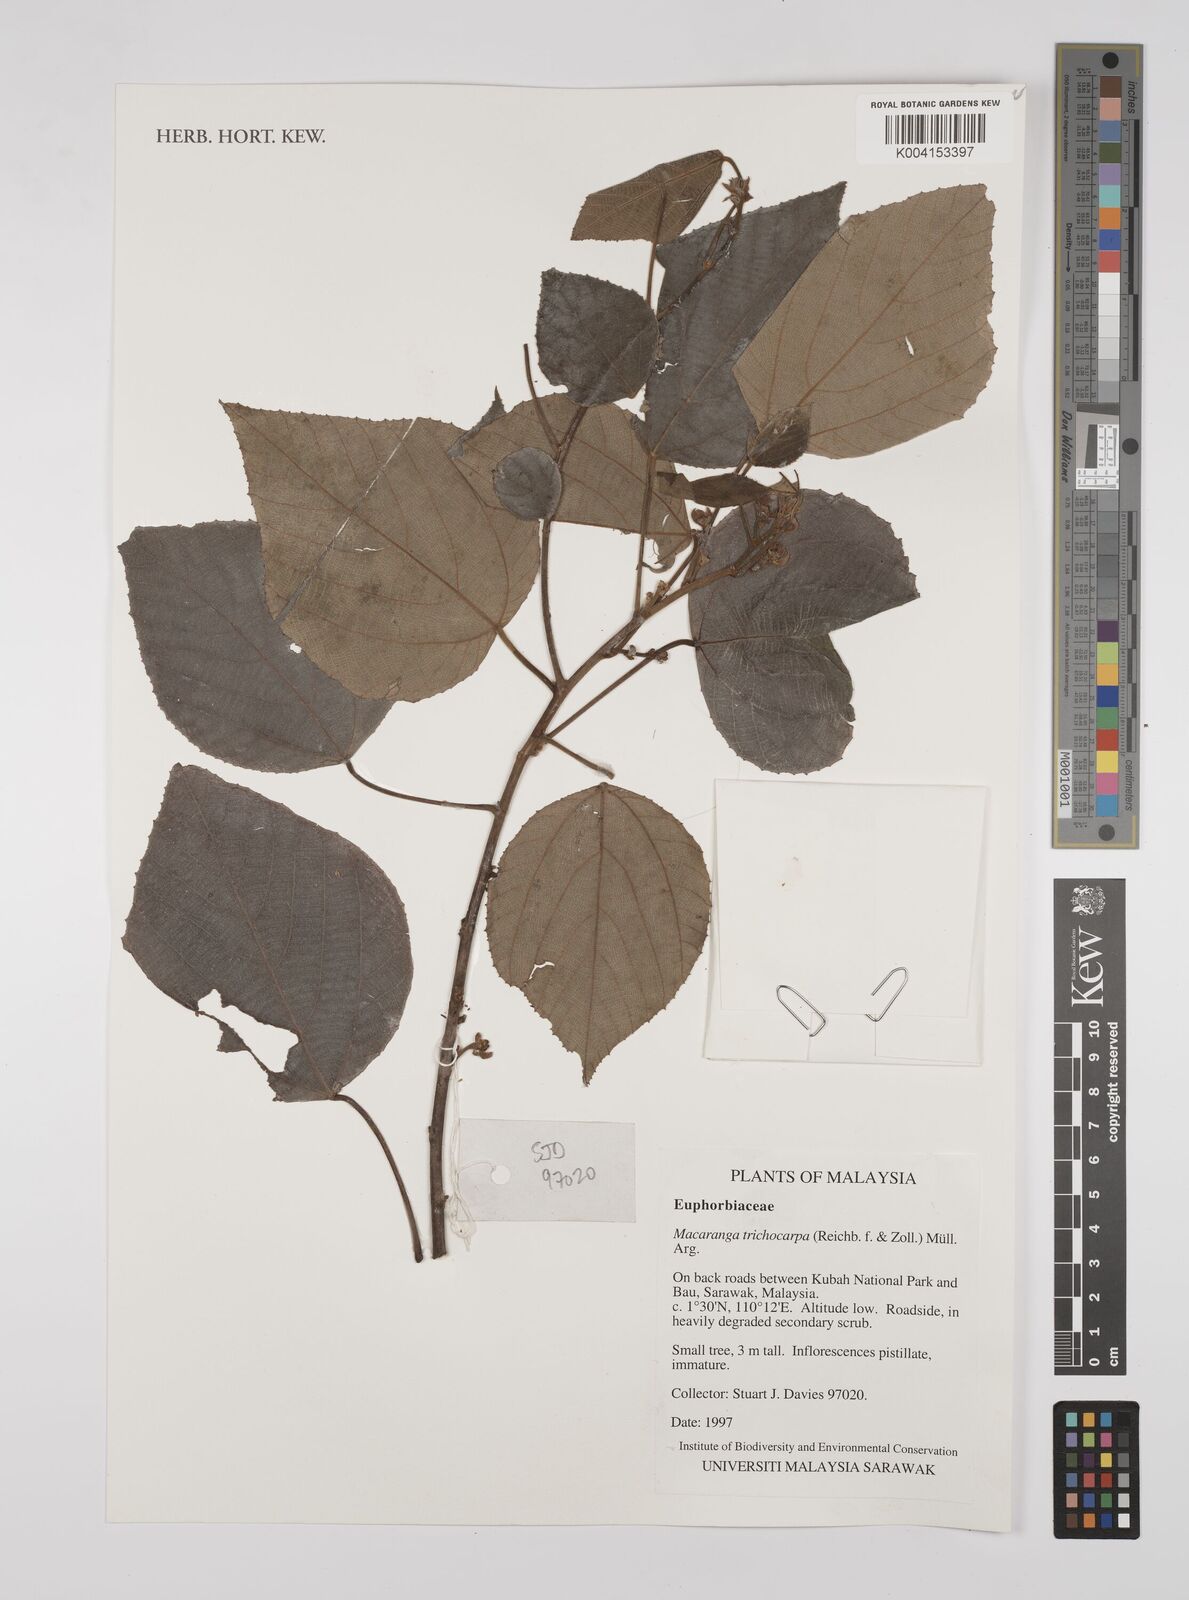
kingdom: Plantae
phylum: Tracheophyta
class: Magnoliopsida
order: Malpighiales
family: Euphorbiaceae
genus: Macaranga
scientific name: Macaranga trichocarpa
